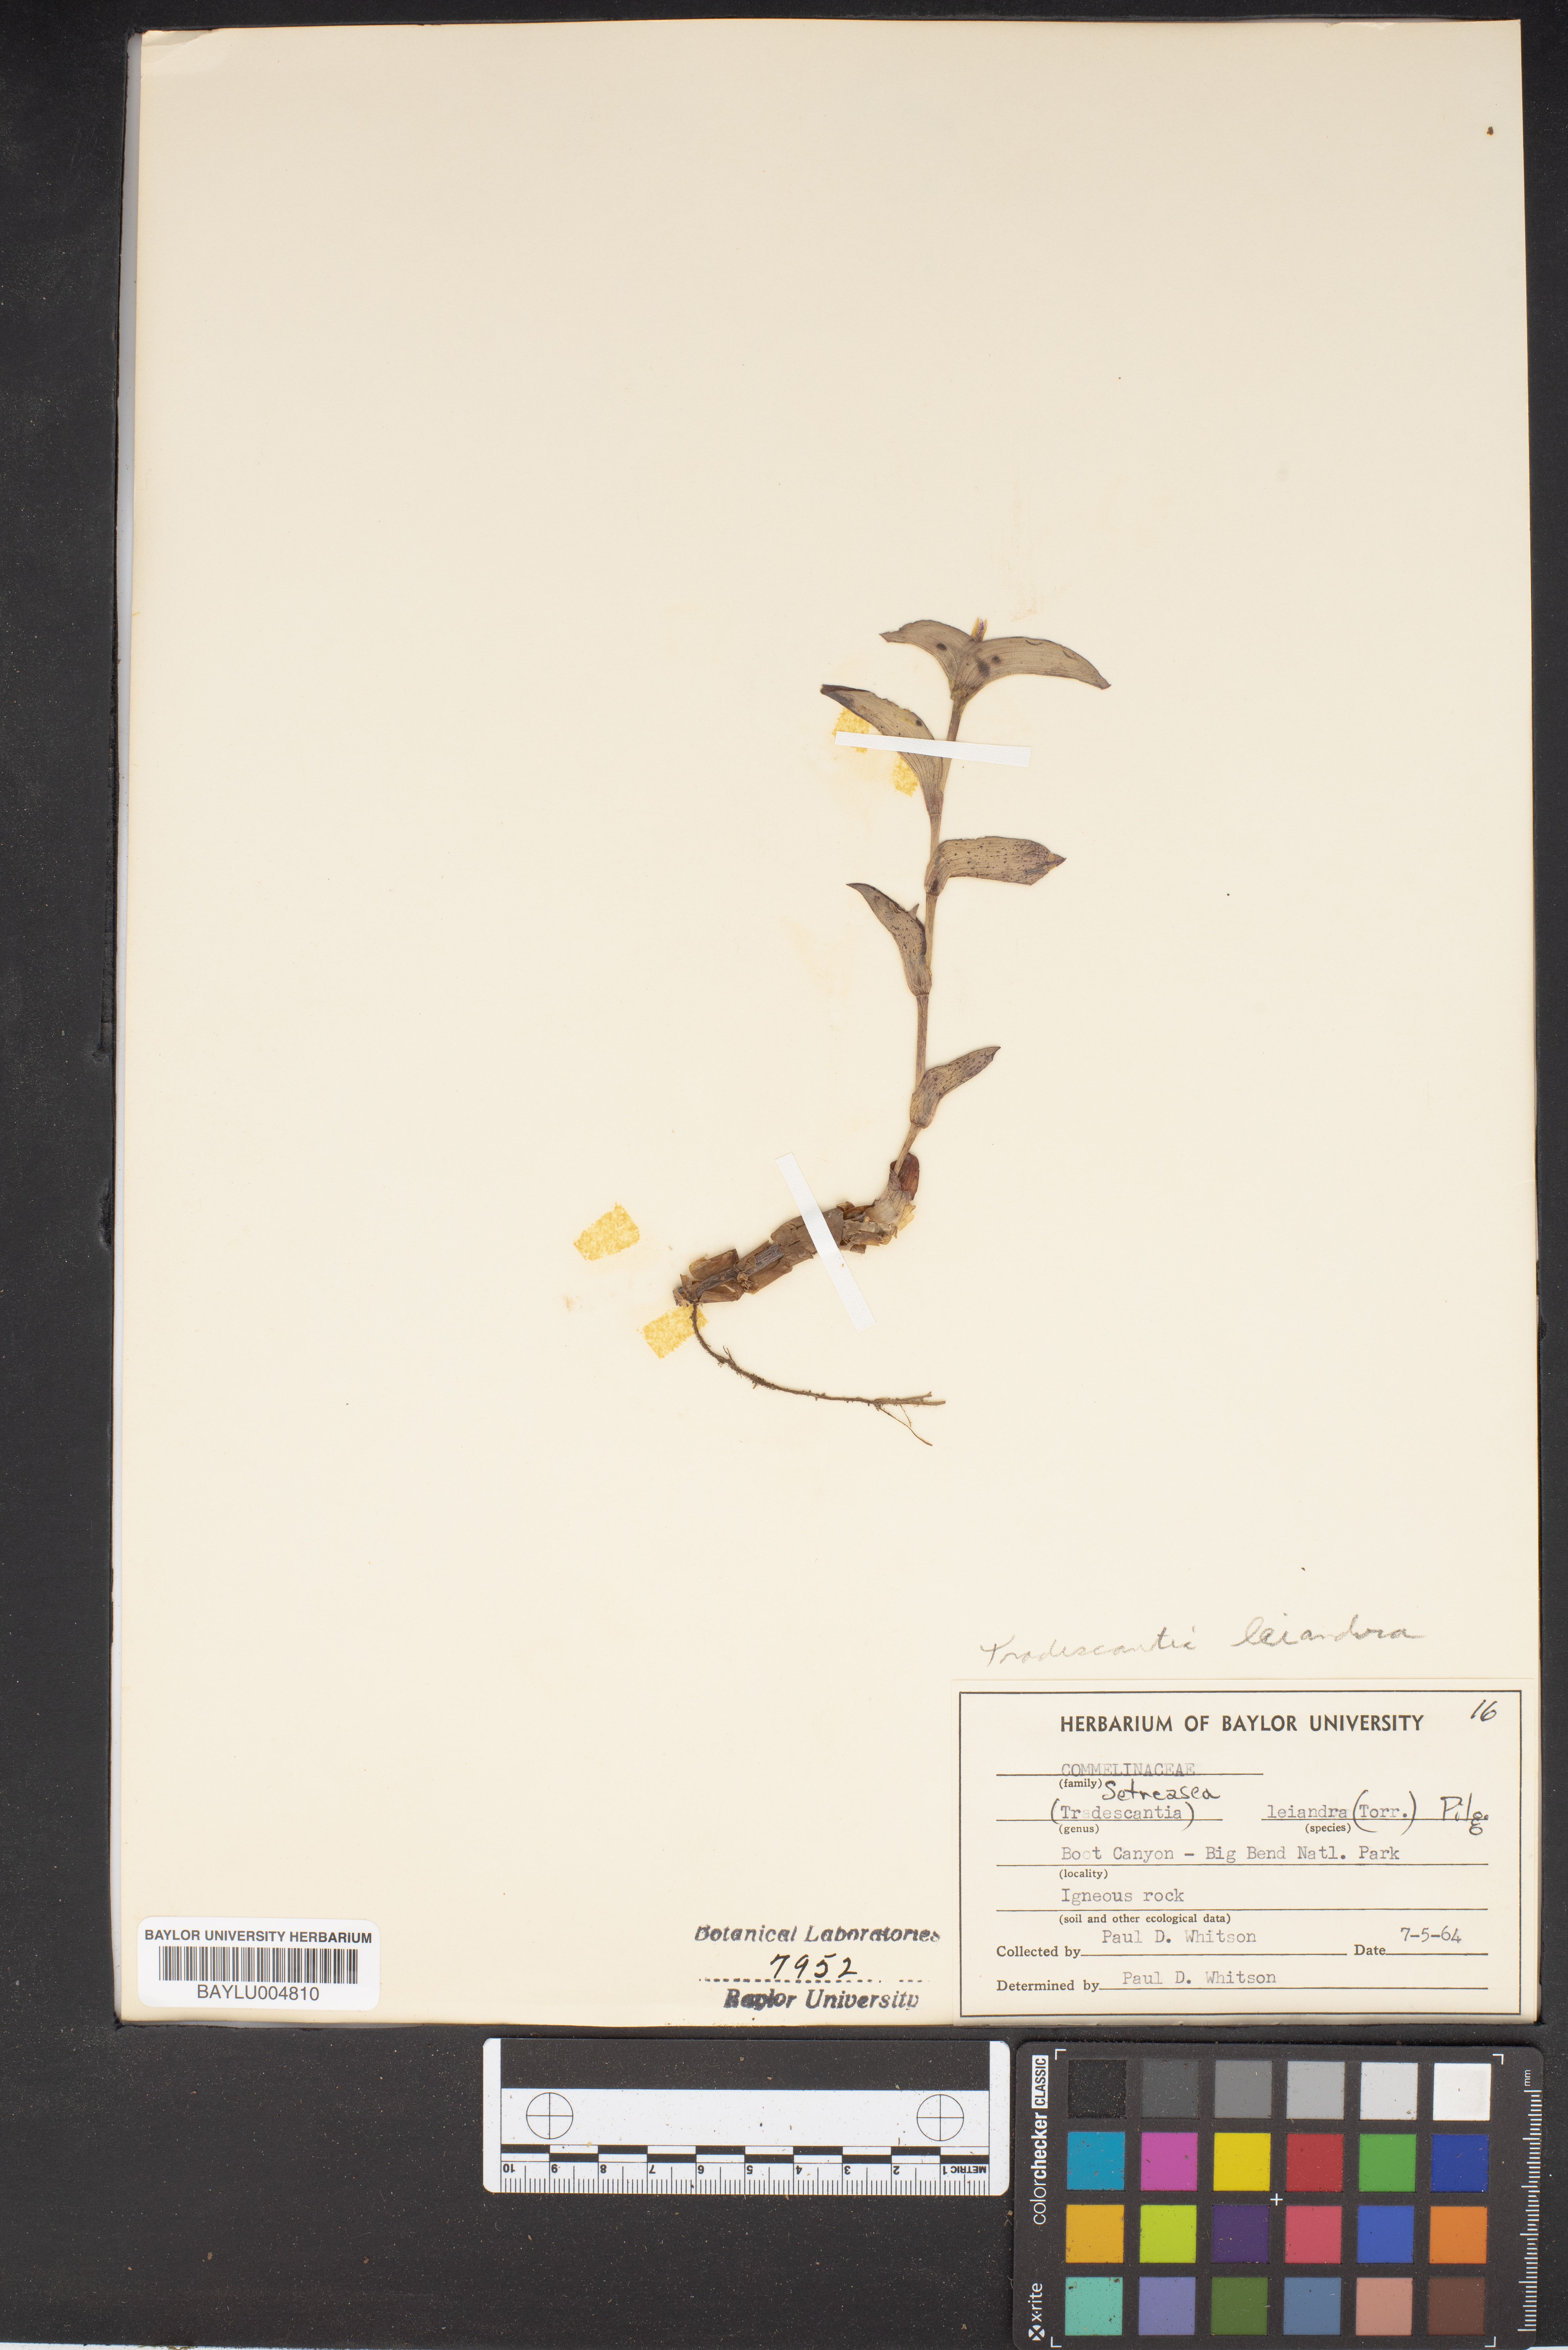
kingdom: Plantae
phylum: Tracheophyta
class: Liliopsida
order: Commelinales
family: Commelinaceae
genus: Tradescantia
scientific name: Tradescantia leiandra
